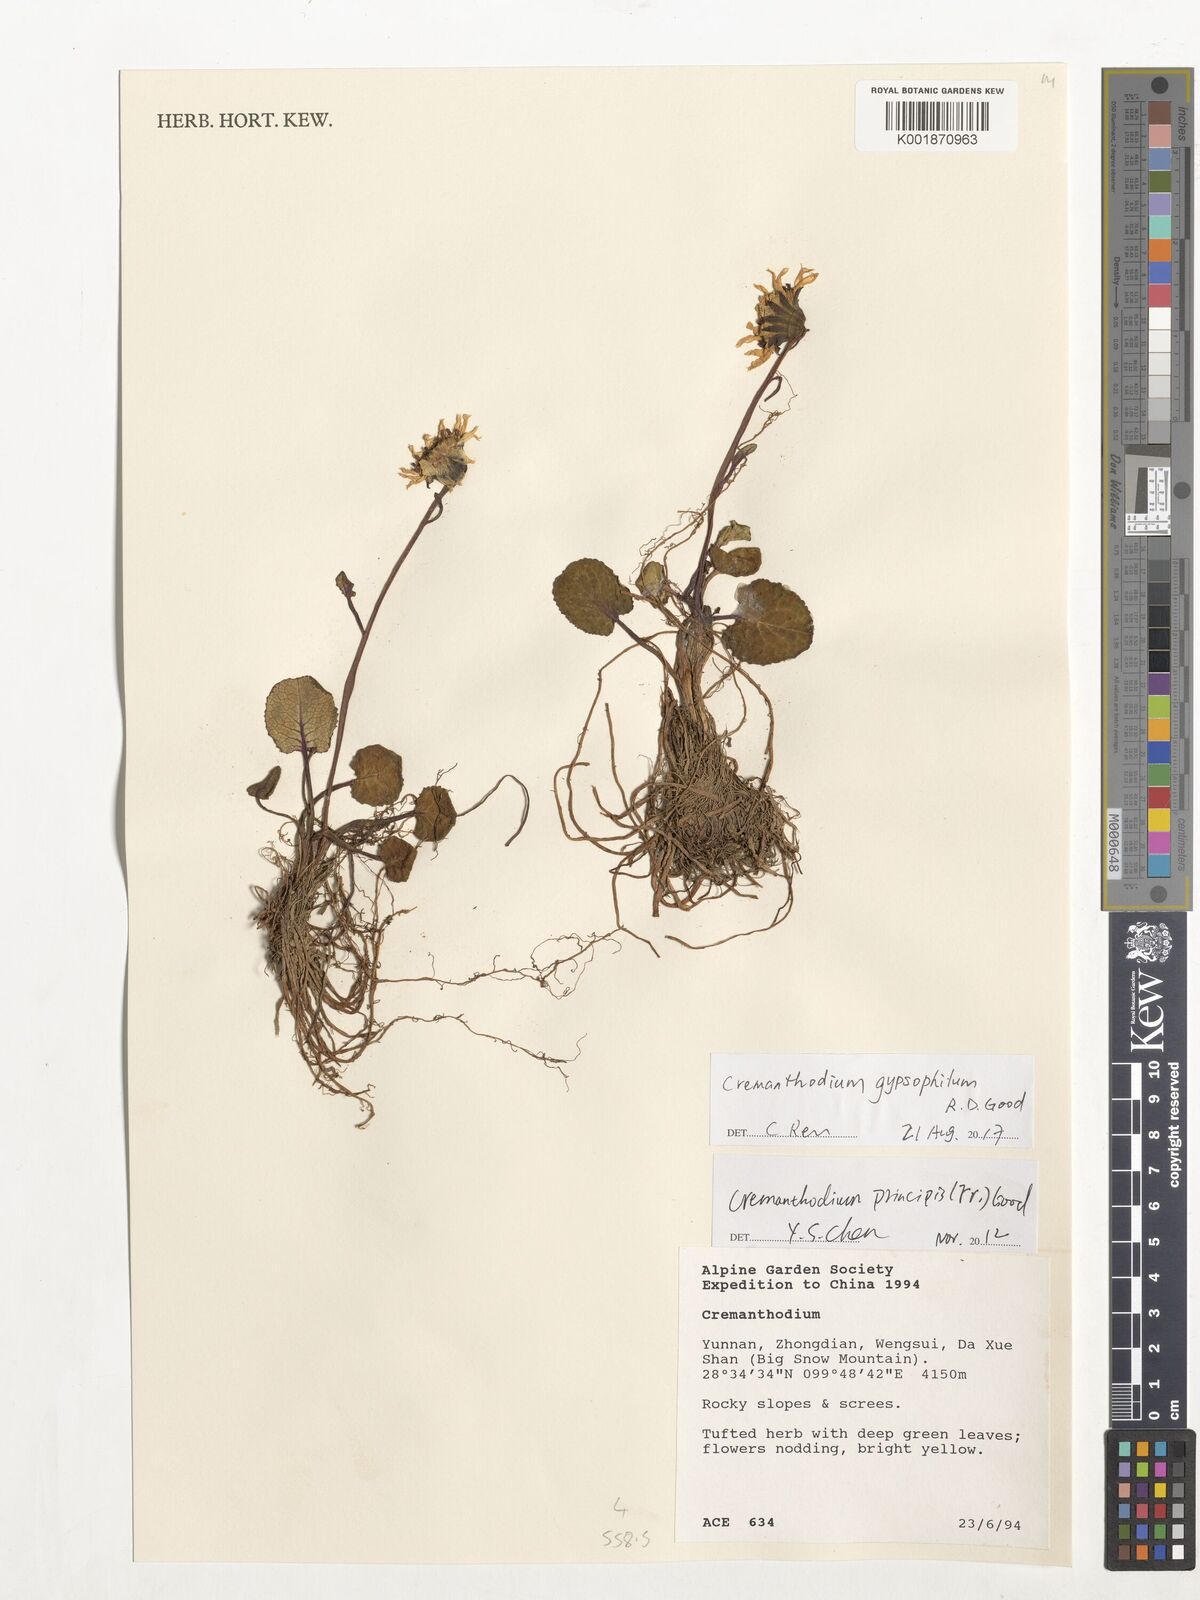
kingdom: Plantae
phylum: Tracheophyta
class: Magnoliopsida
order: Asterales
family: Asteraceae
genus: Cremanthodium
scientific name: Cremanthodium principis
